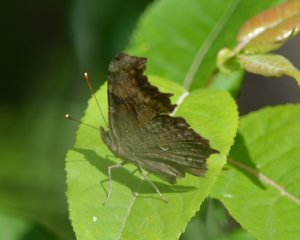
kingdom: Animalia
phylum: Arthropoda
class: Insecta
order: Lepidoptera
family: Nymphalidae
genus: Polygonia
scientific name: Polygonia progne
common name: Gray Comma
